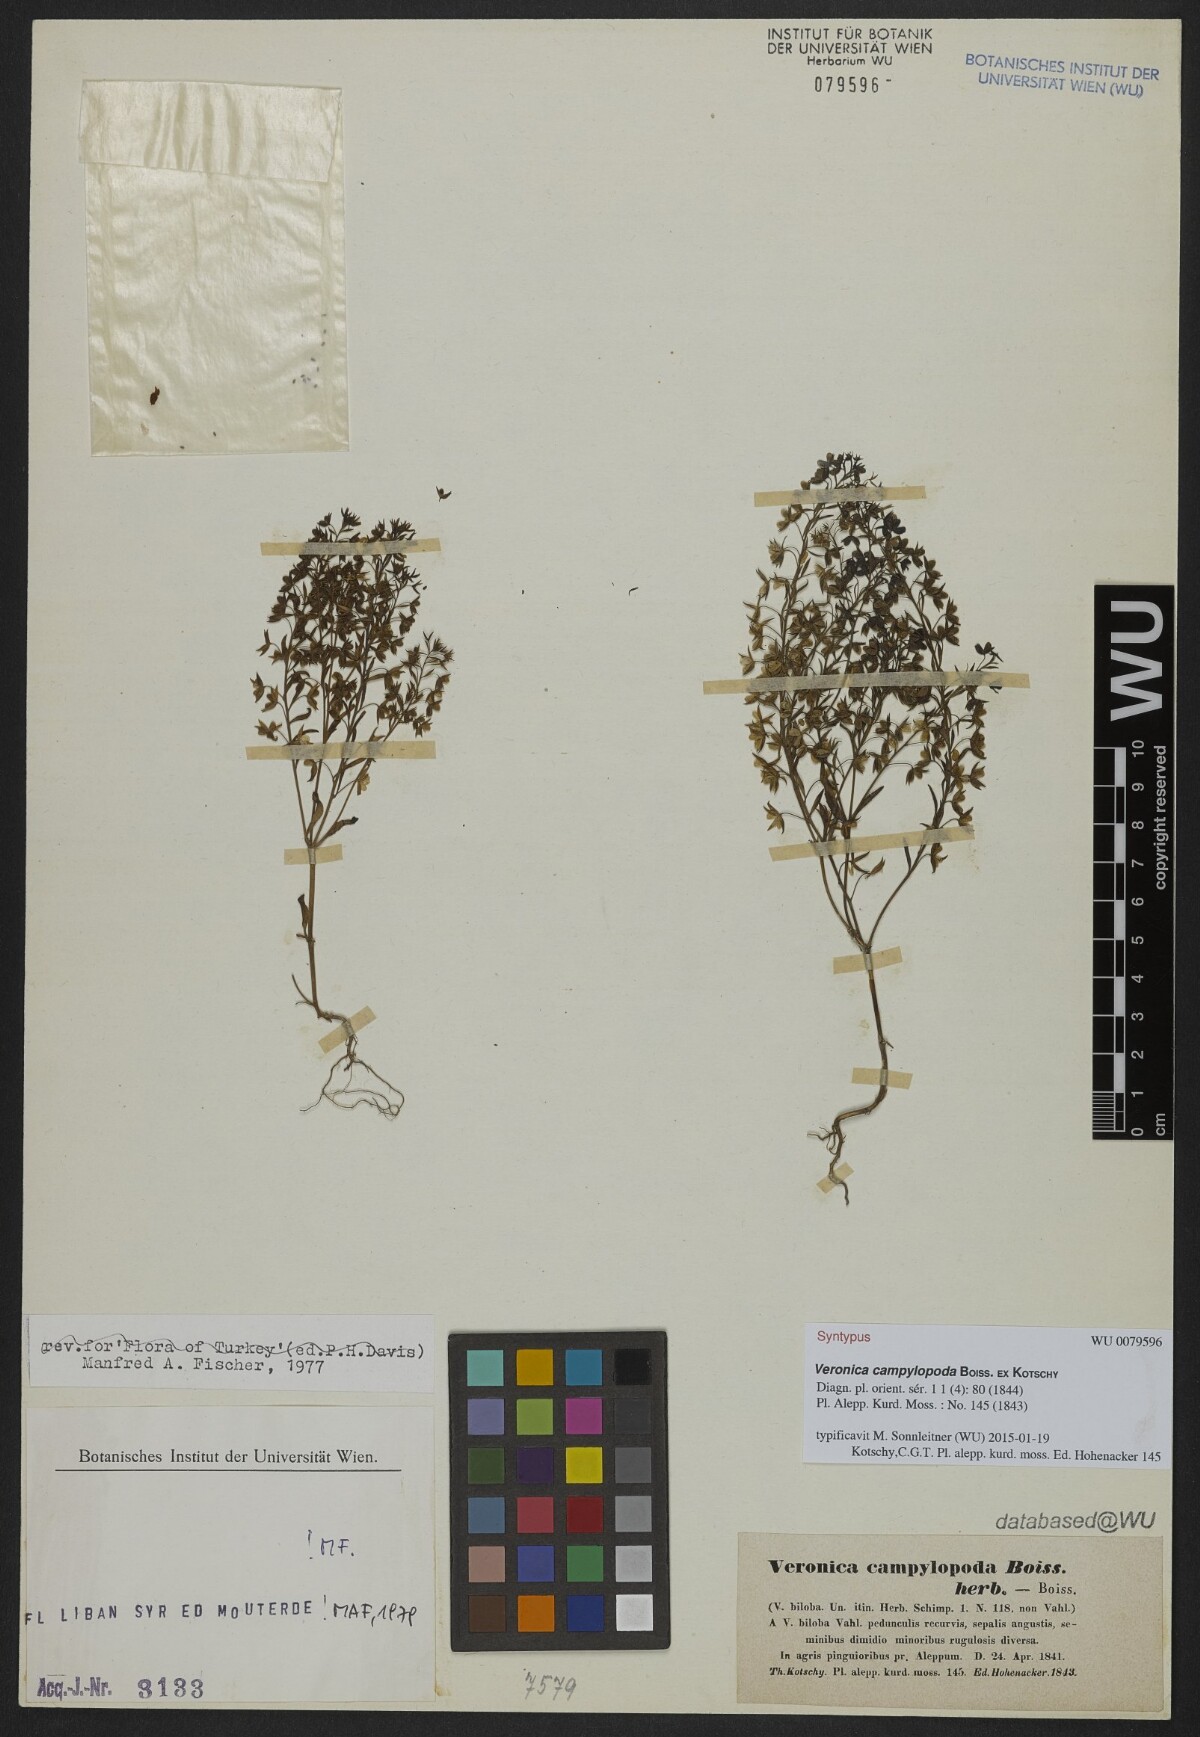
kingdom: Plantae
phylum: Tracheophyta
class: Magnoliopsida
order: Lamiales
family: Scrophulariaceae
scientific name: Scrophulariaceae
